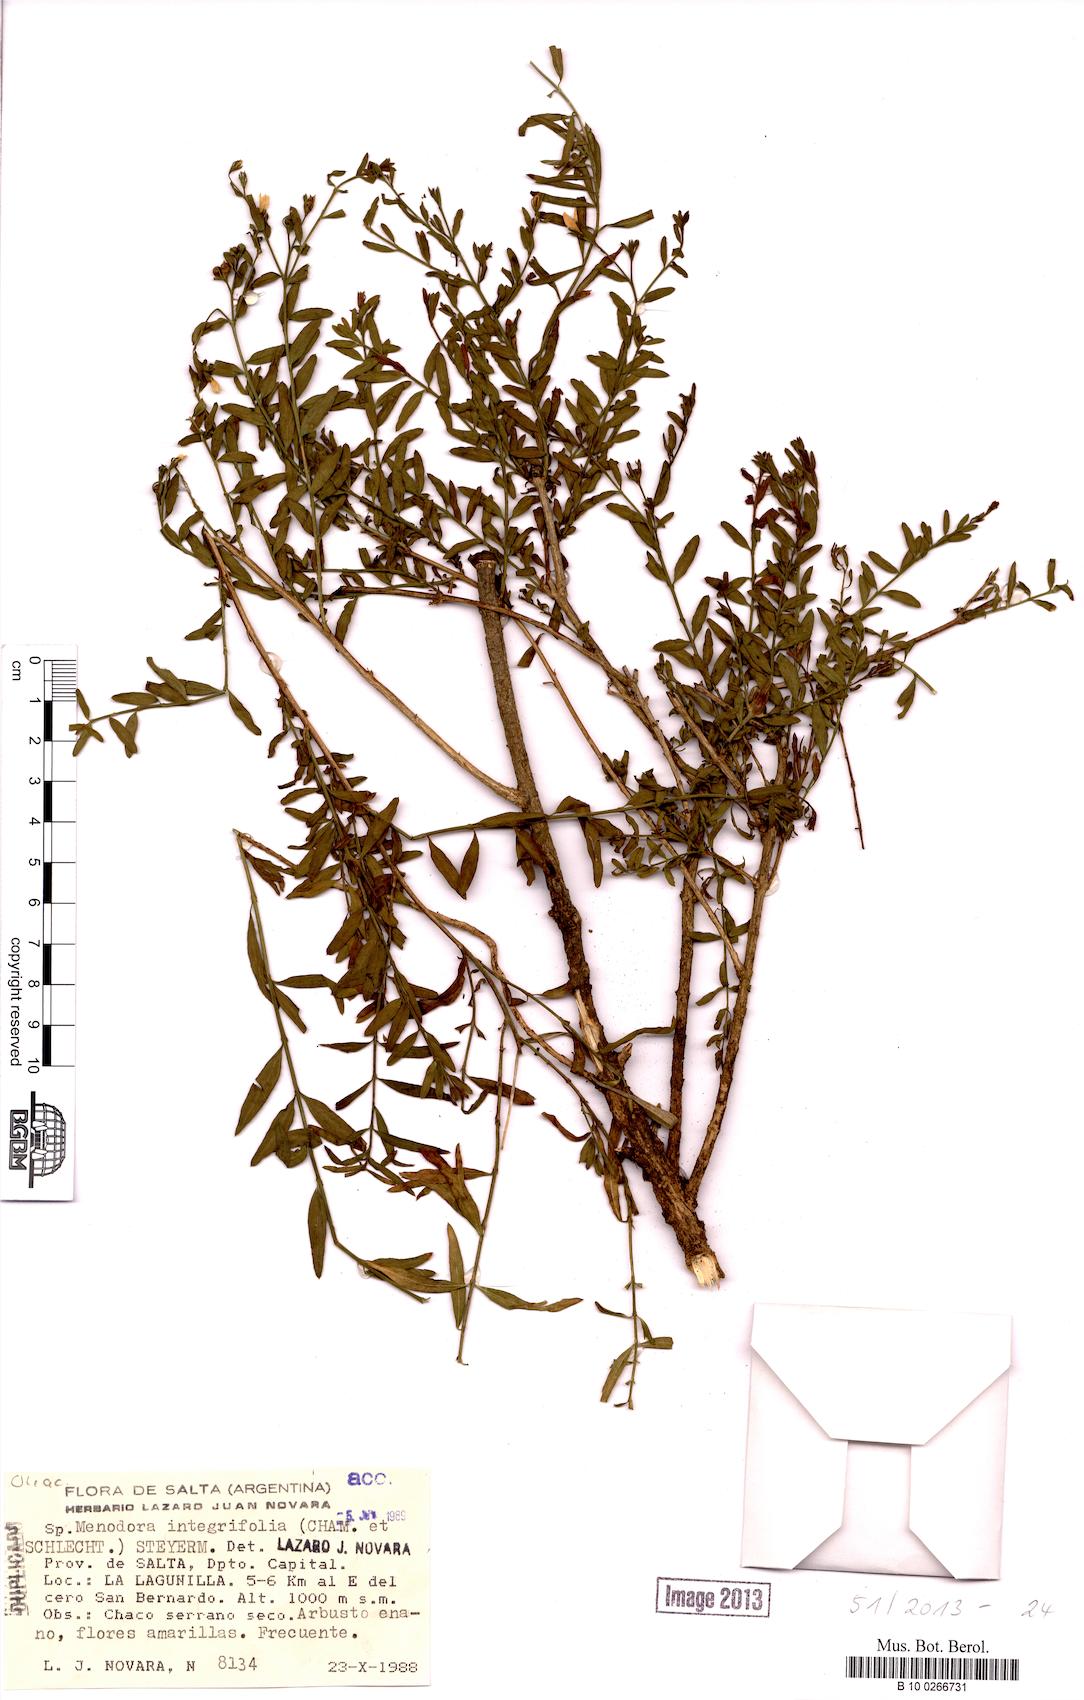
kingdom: Plantae
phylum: Tracheophyta
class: Magnoliopsida
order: Lamiales
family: Oleaceae
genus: Menodora
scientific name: Menodora integrifolia
